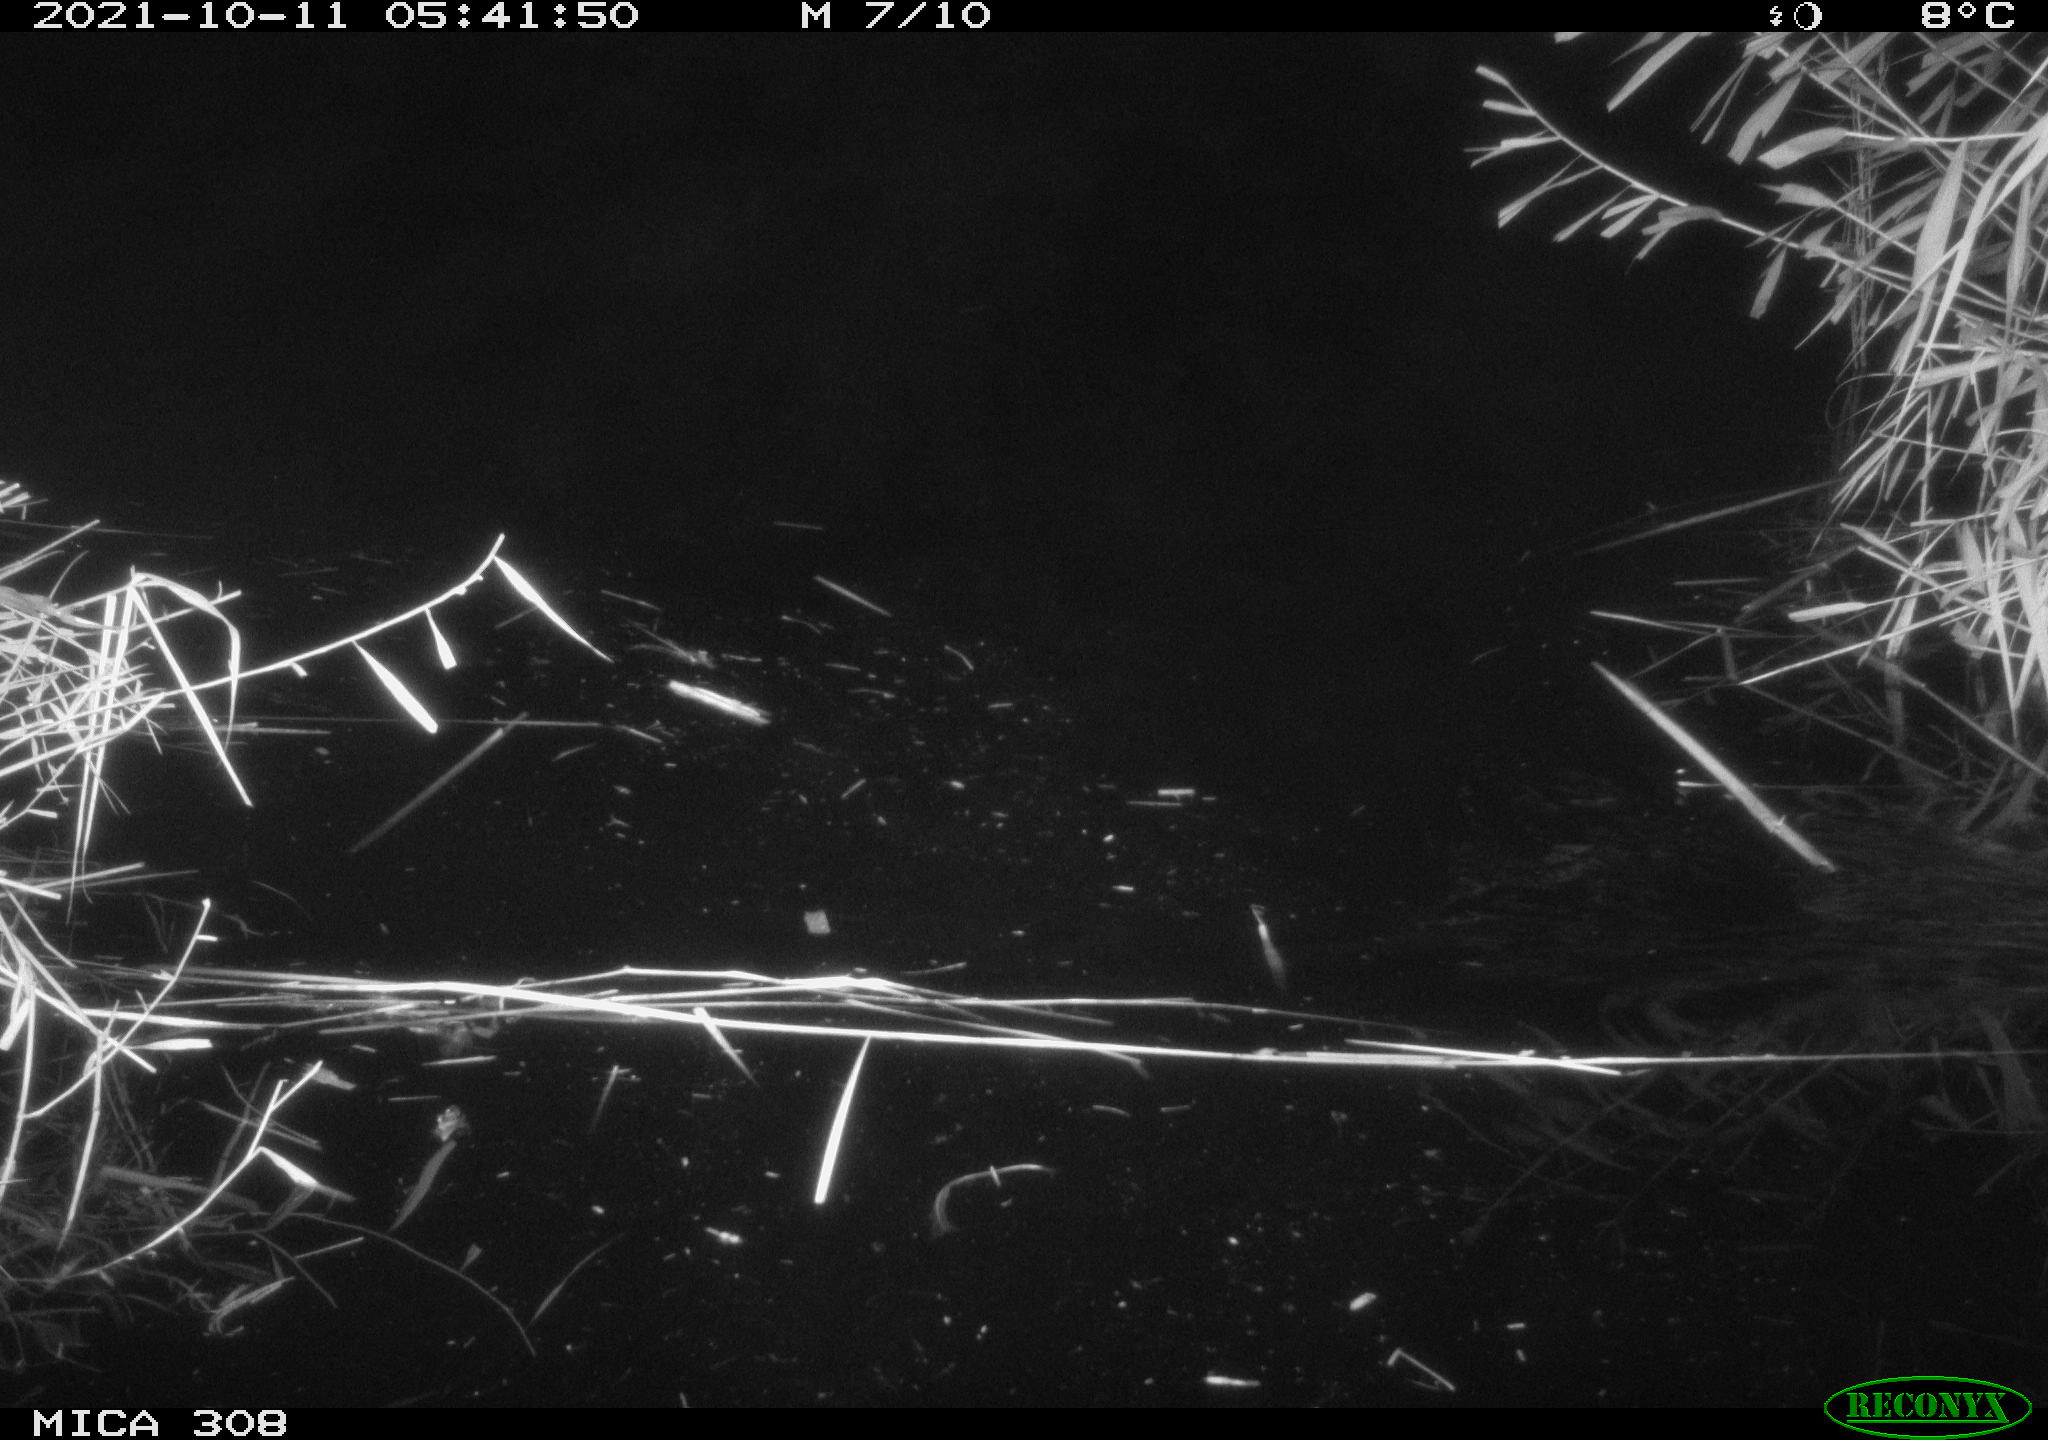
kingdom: Animalia
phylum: Chordata
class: Mammalia
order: Rodentia
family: Muridae
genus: Rattus
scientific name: Rattus norvegicus
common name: Brown rat
